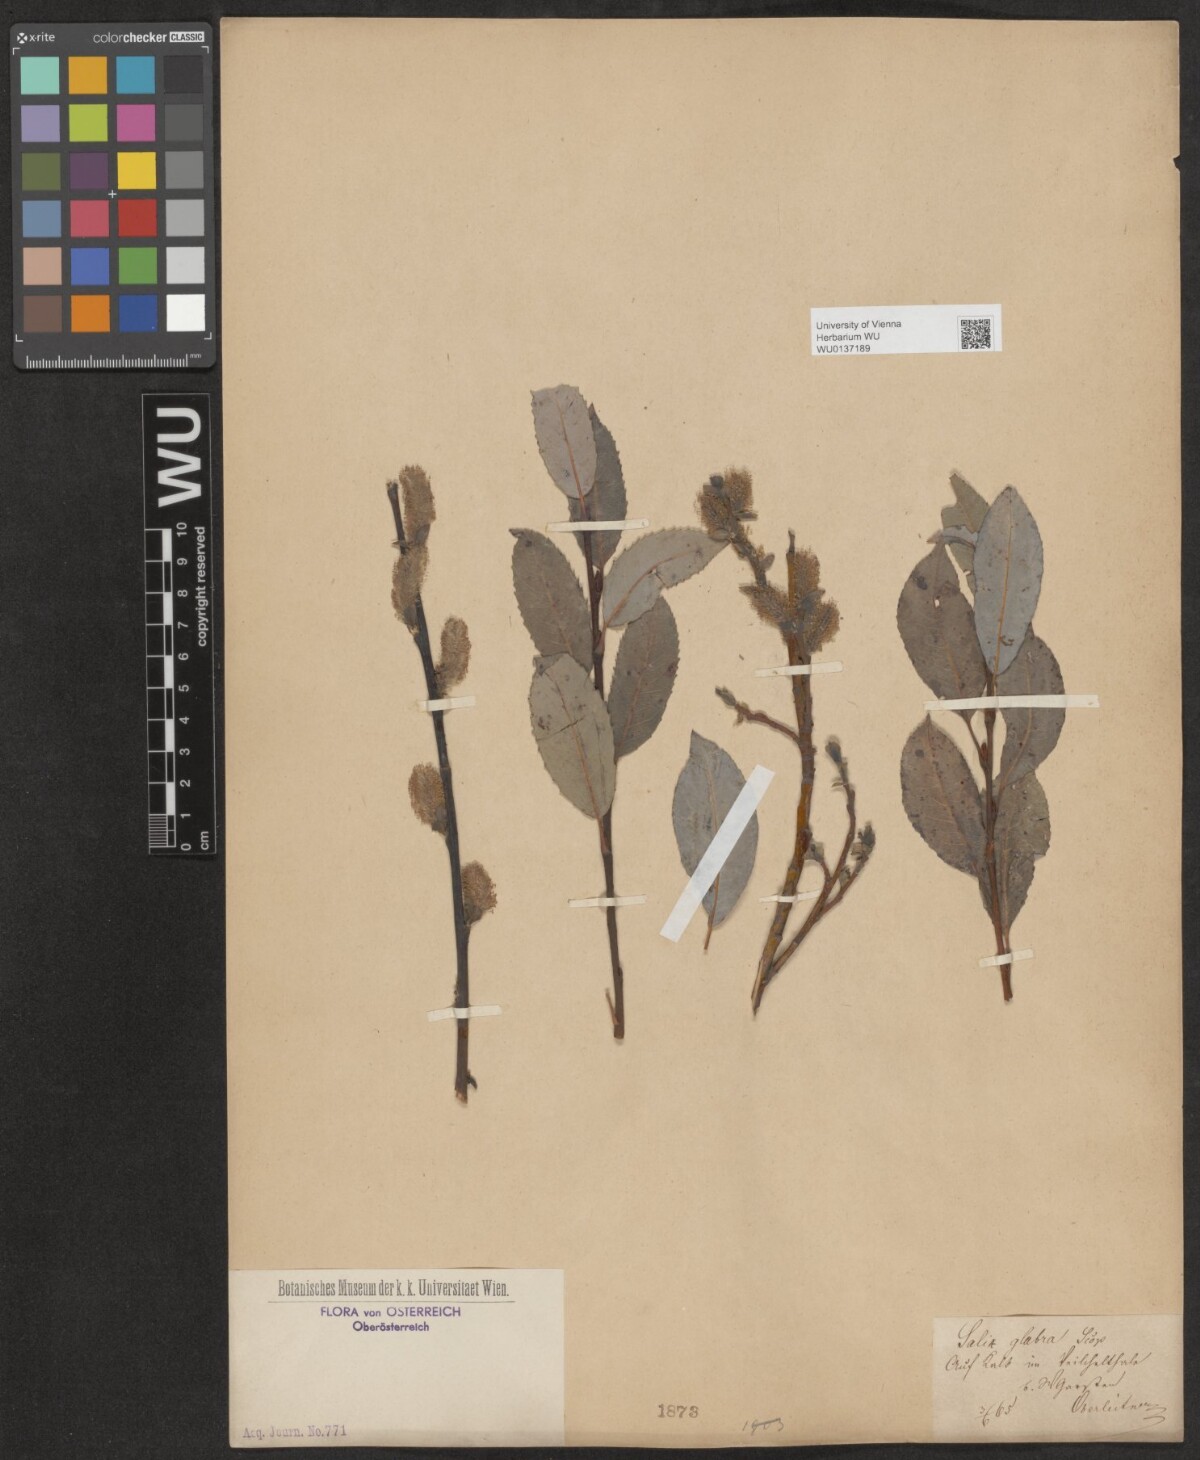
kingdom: Plantae
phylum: Tracheophyta
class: Magnoliopsida
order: Malpighiales
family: Salicaceae
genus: Salix
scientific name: Salix glabra
